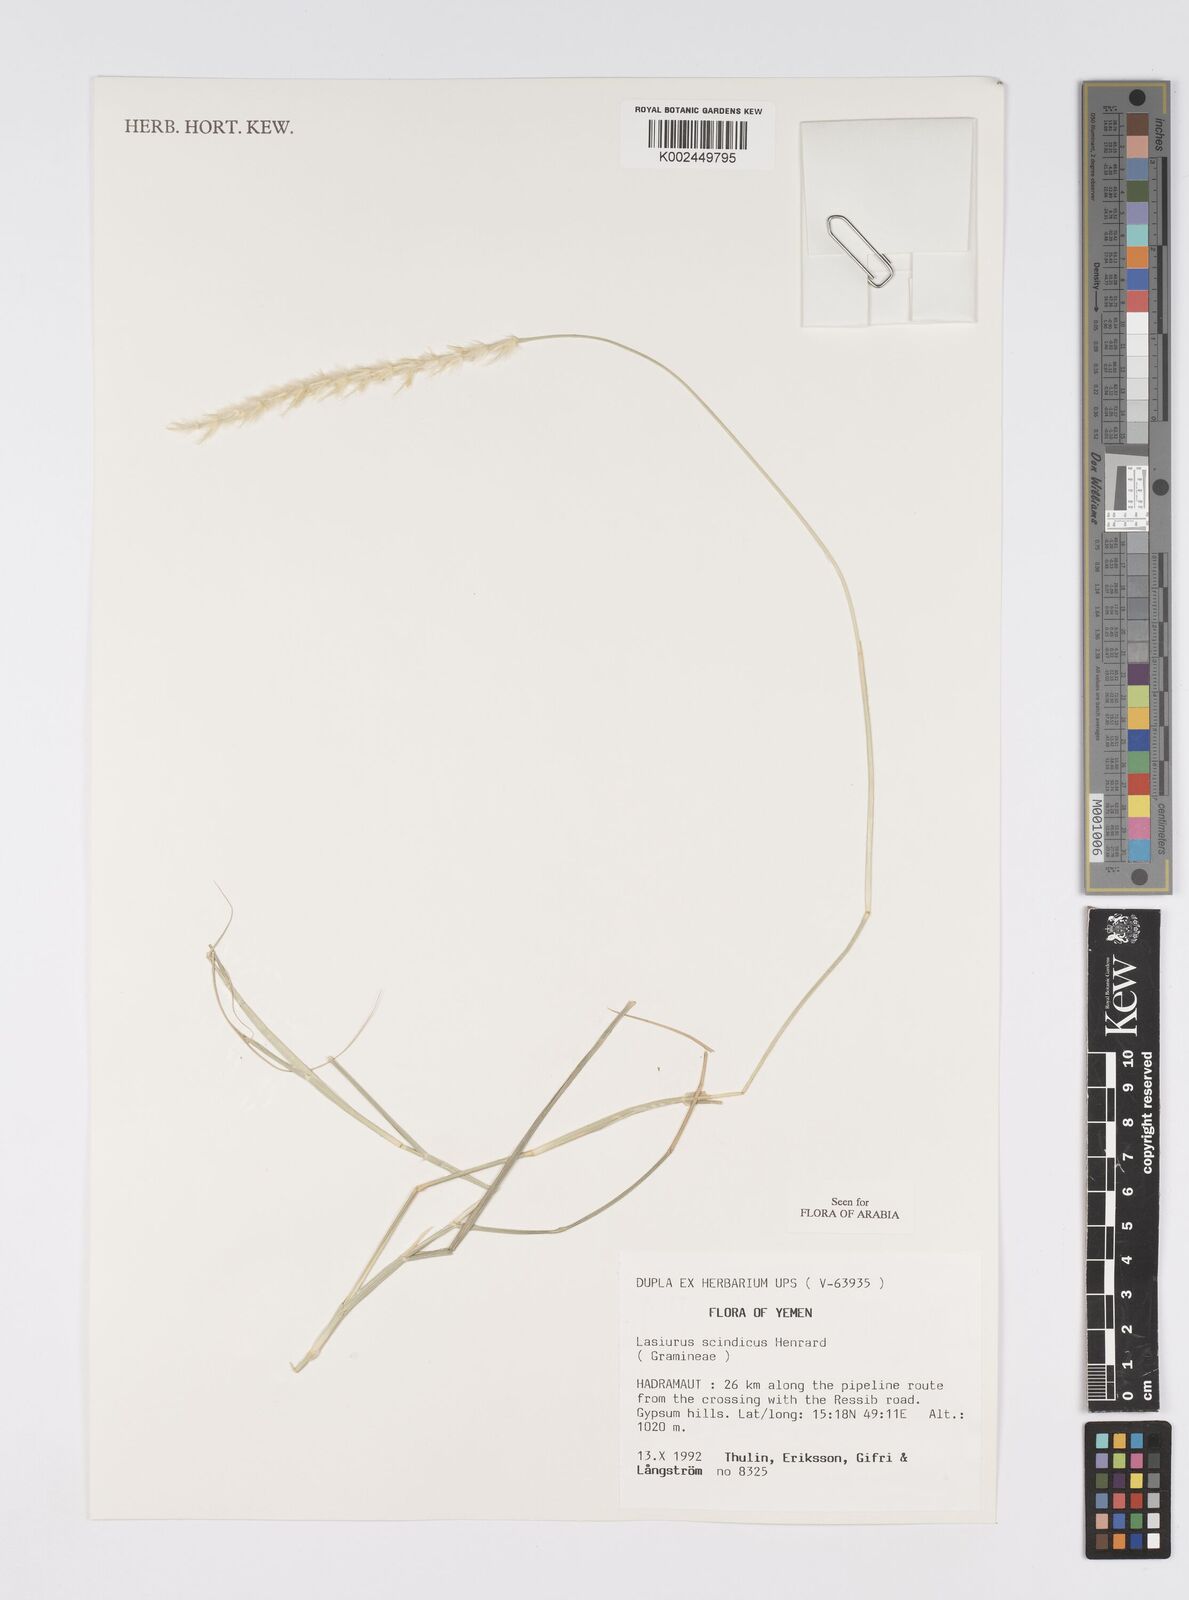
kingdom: Plantae
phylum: Tracheophyta
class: Liliopsida
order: Poales
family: Poaceae
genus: Lasiurus
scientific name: Lasiurus scindicus
